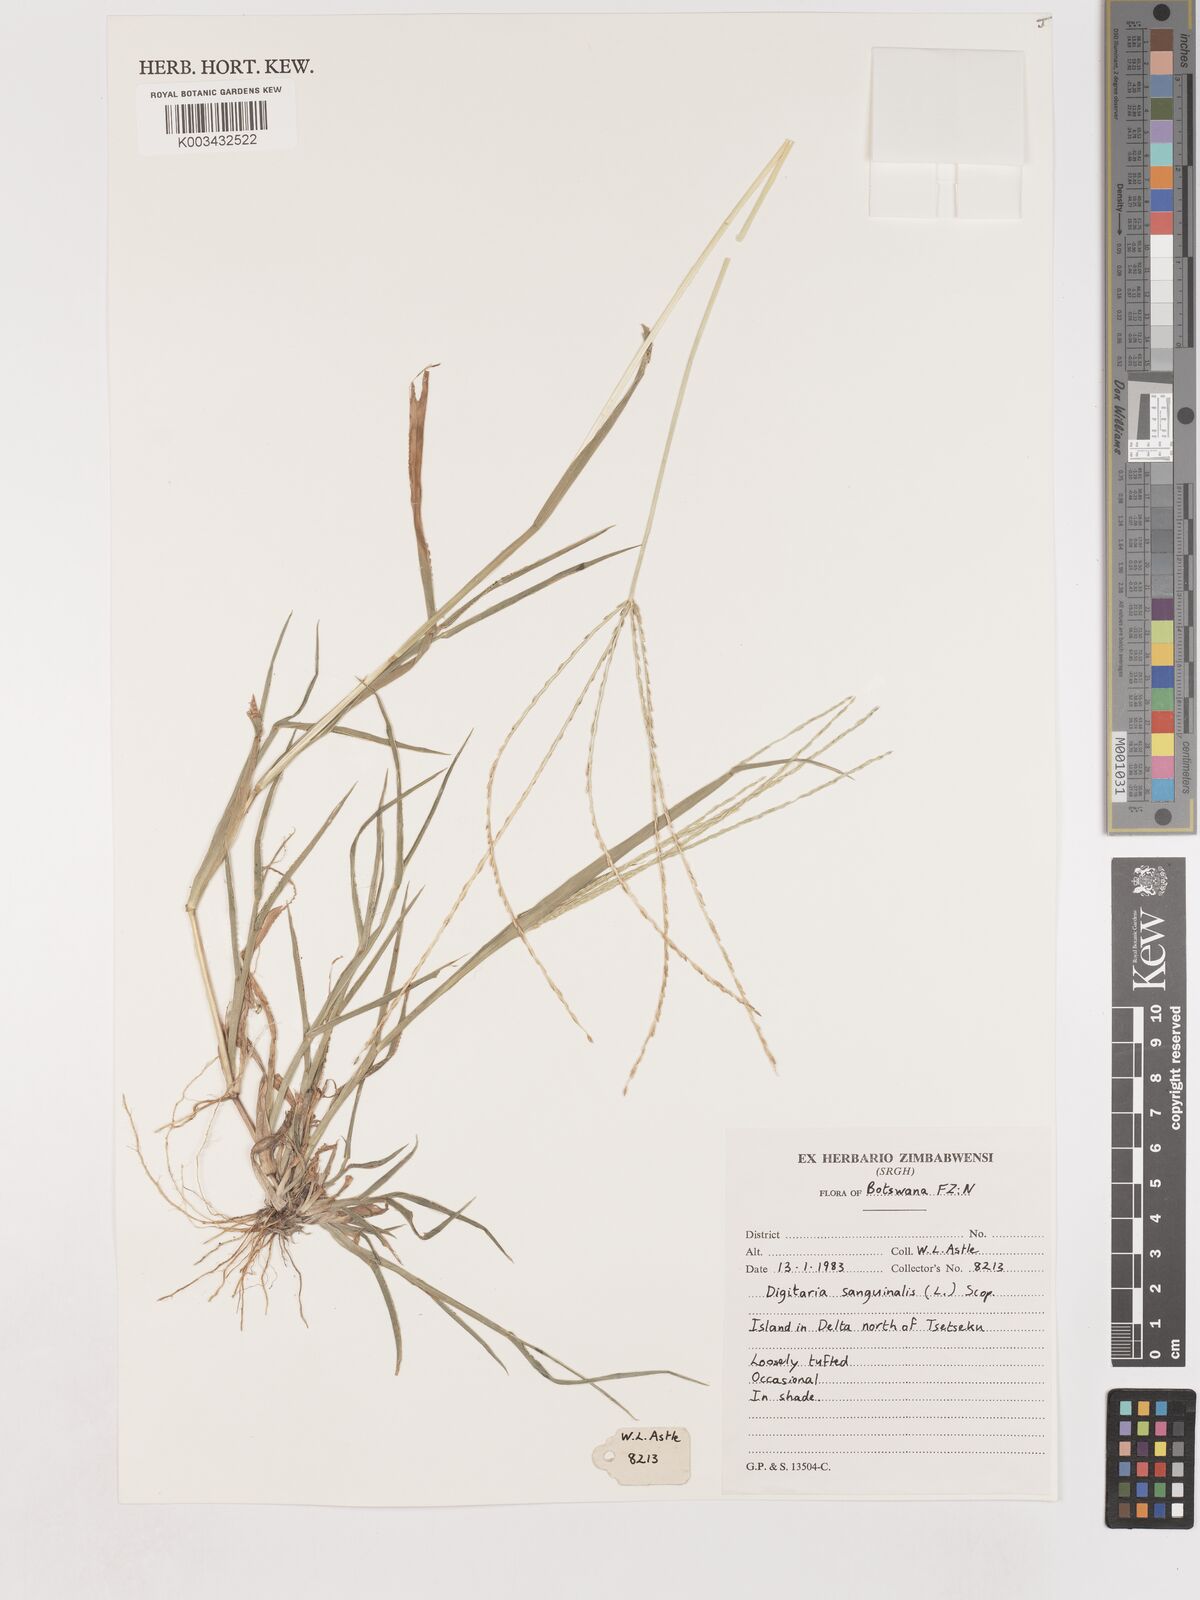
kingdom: Plantae
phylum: Tracheophyta
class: Liliopsida
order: Poales
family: Poaceae
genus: Digitaria
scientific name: Digitaria sanguinalis
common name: Hairy crabgrass
